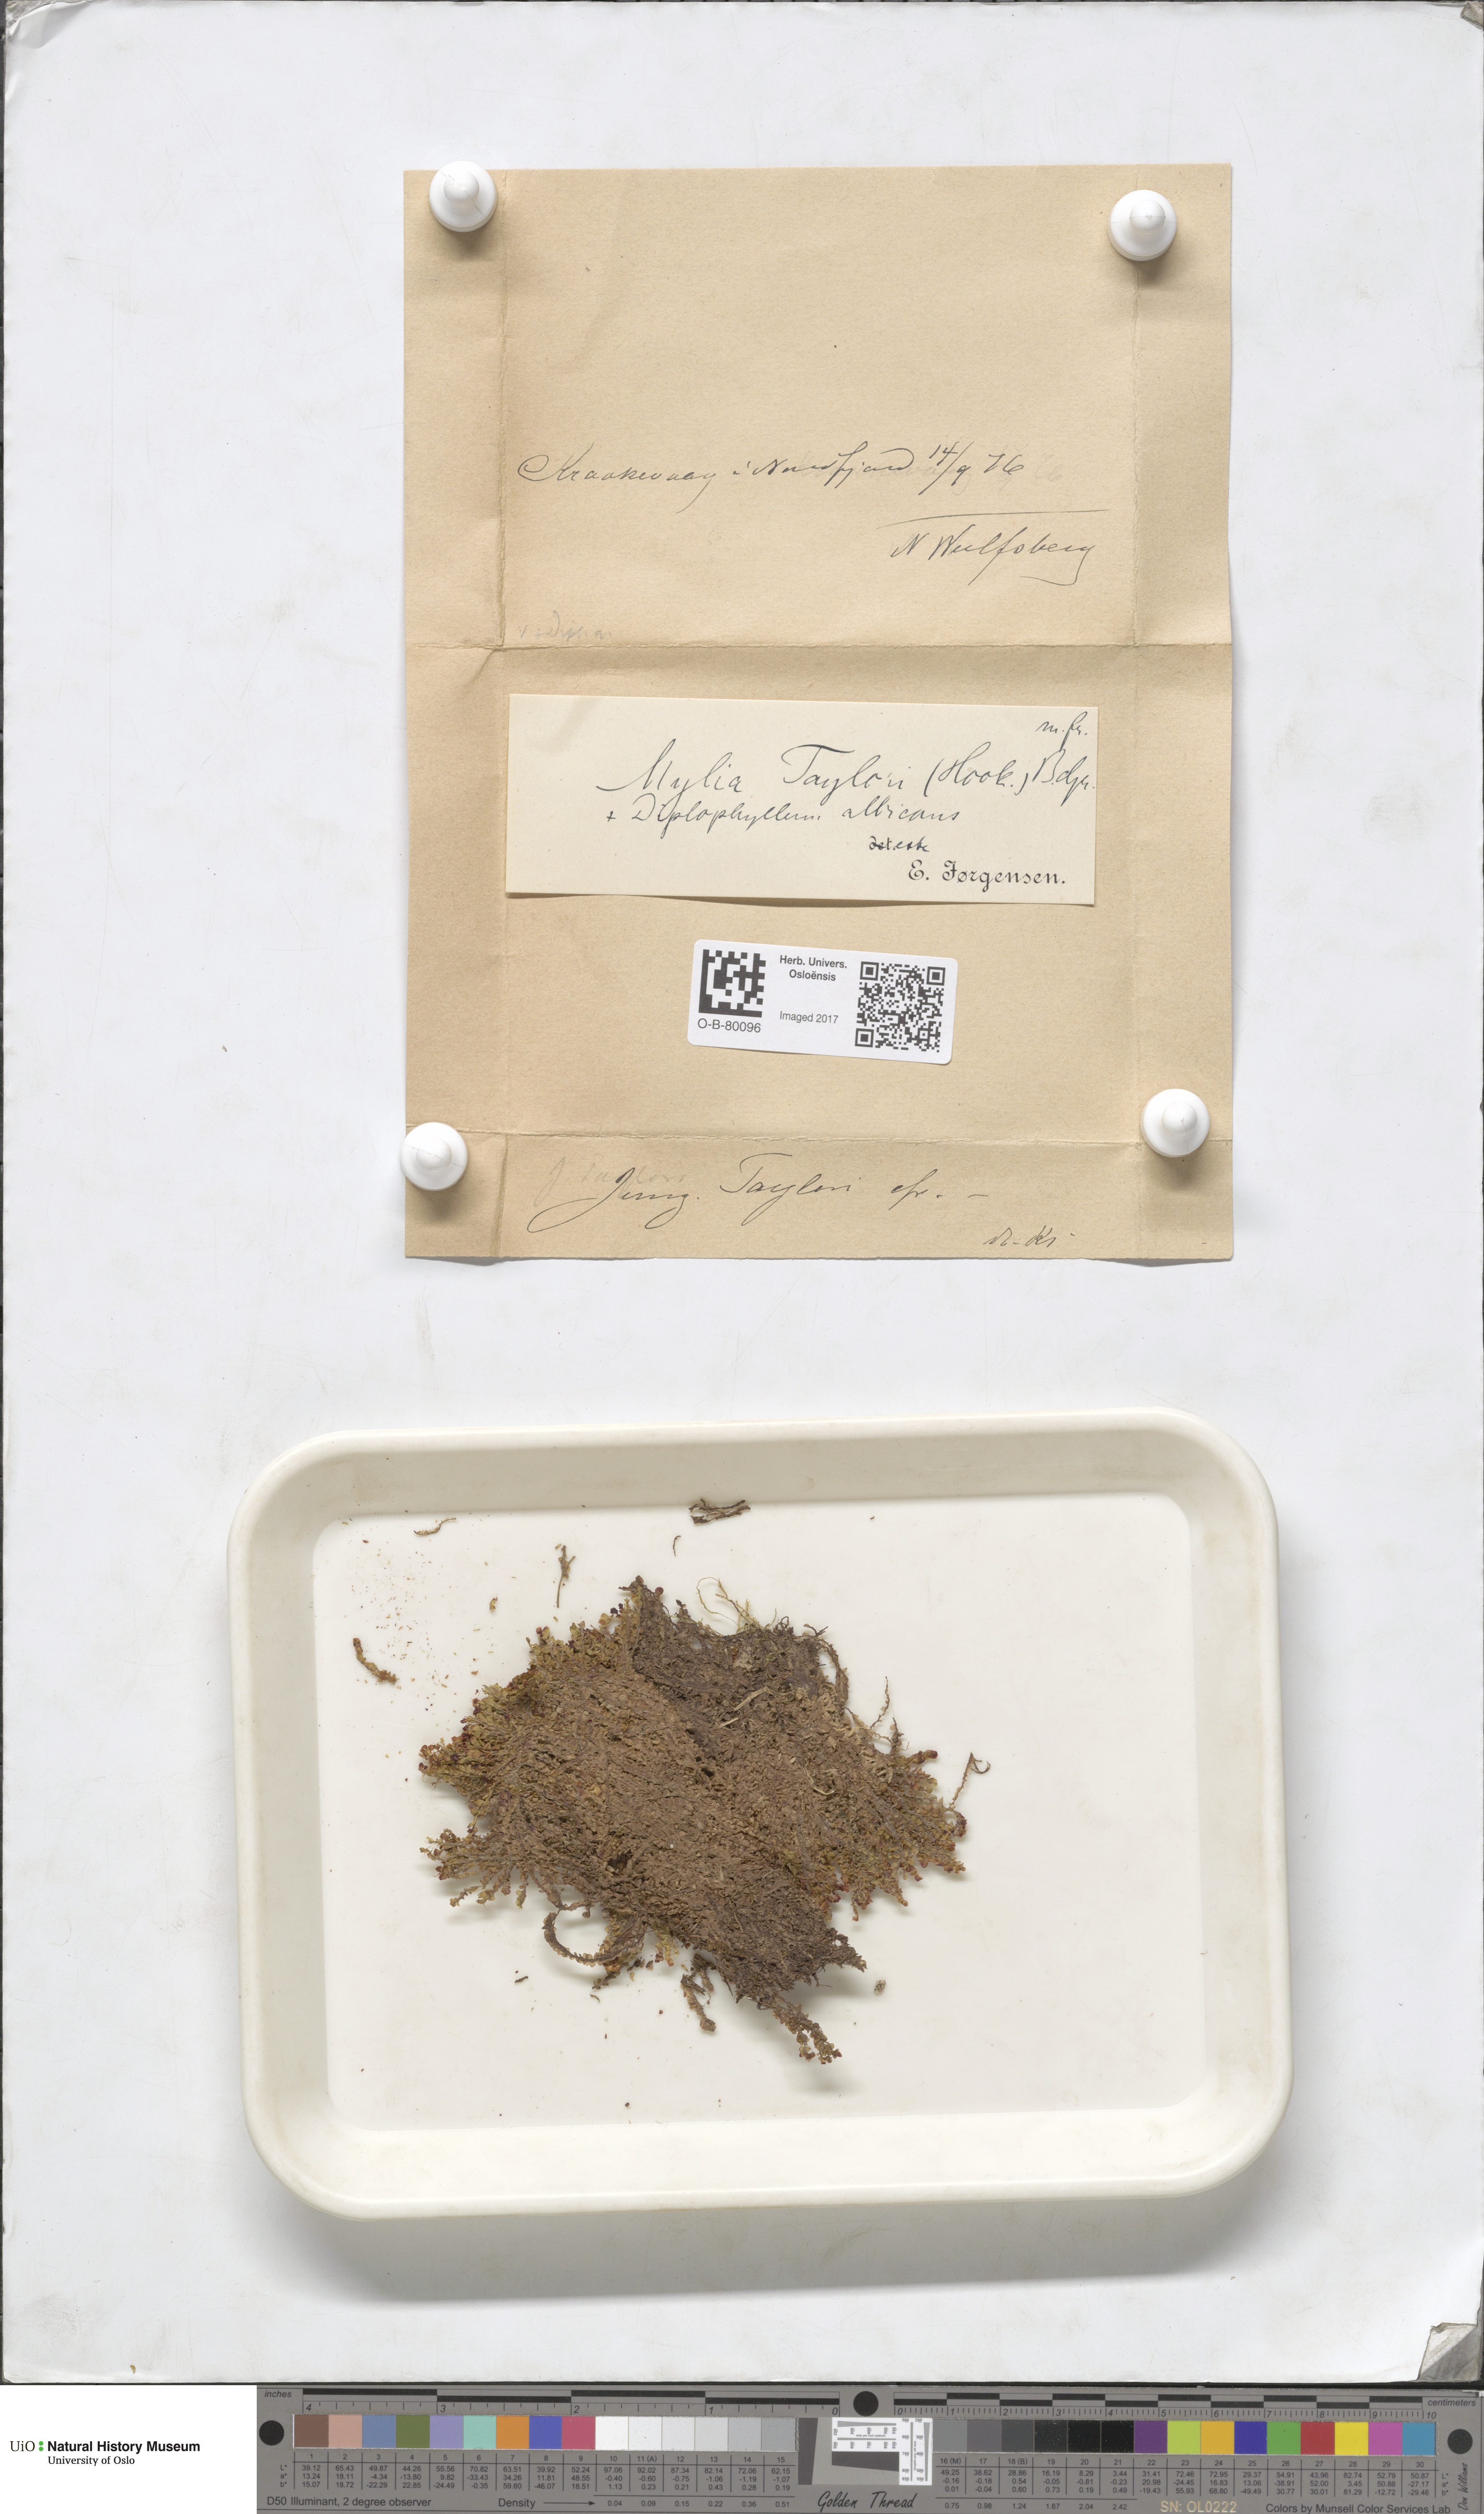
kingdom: Plantae
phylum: Marchantiophyta
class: Jungermanniopsida
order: Jungermanniales
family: Myliaceae
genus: Mylia
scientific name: Mylia taylorii
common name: Taylor s flapwort
